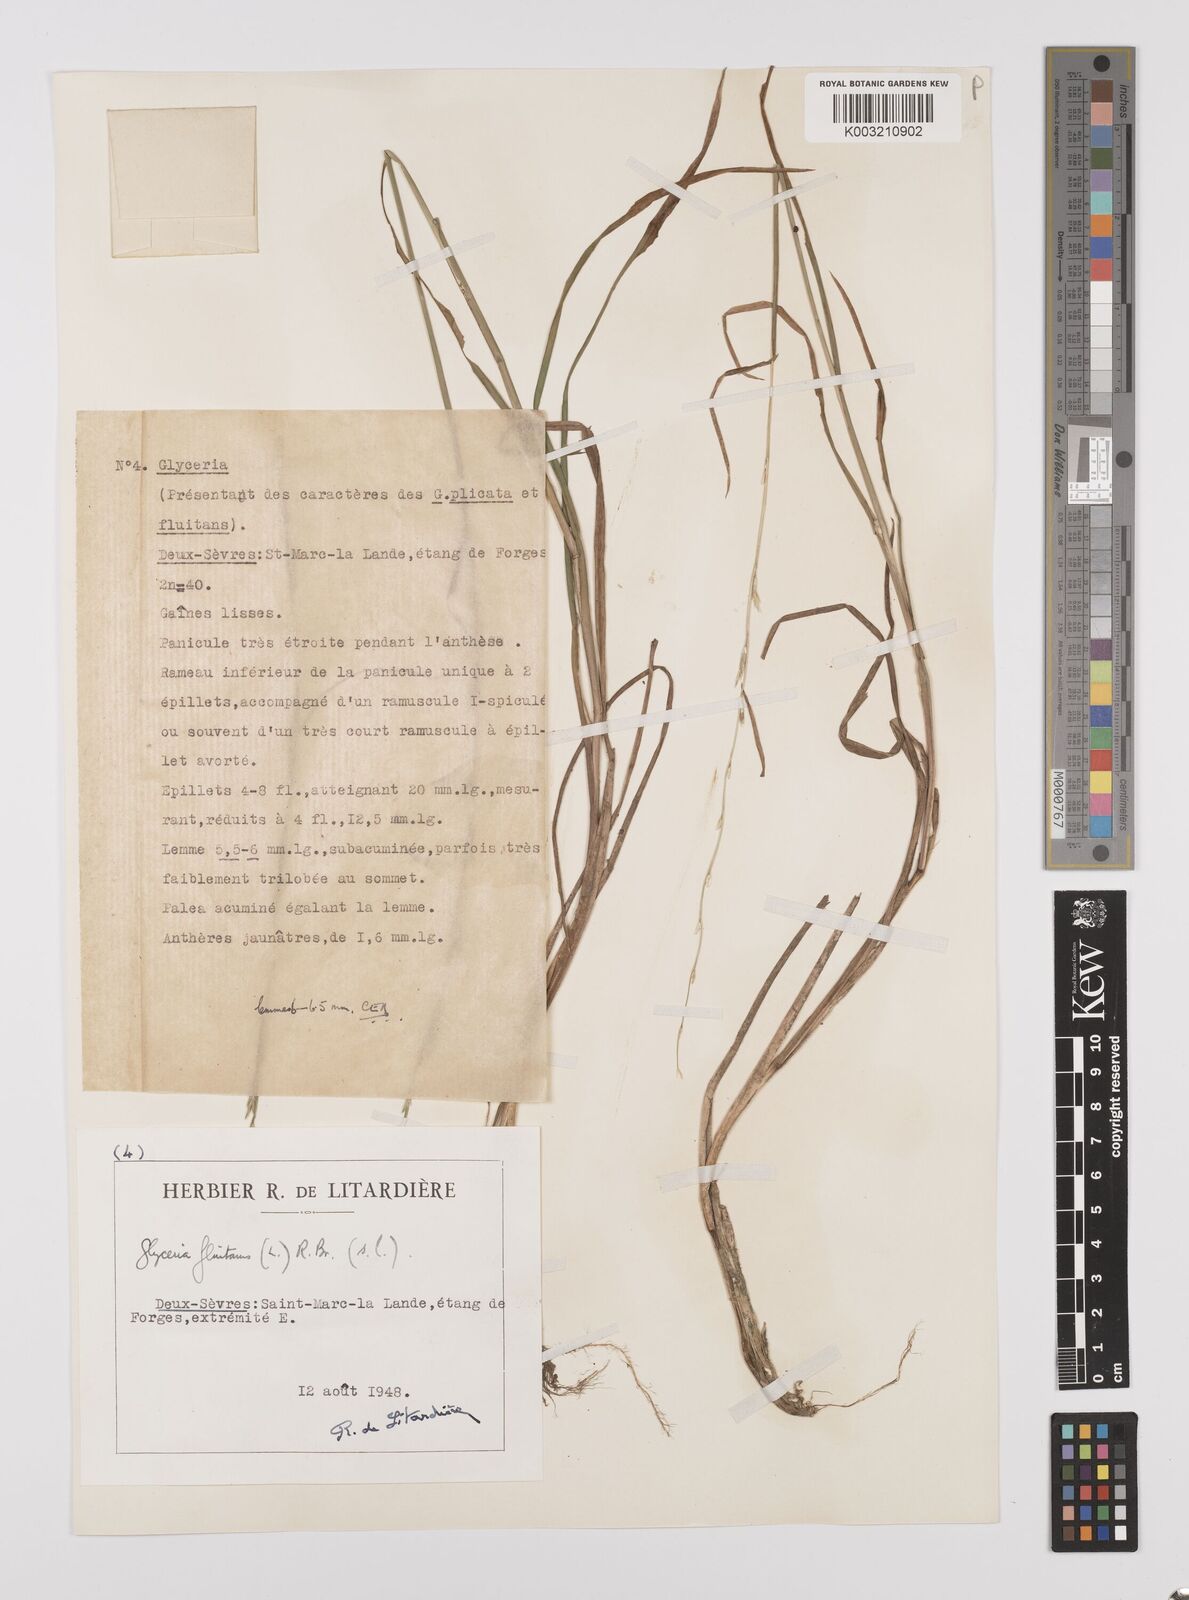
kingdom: Plantae
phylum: Tracheophyta
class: Liliopsida
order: Poales
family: Poaceae
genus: Glyceria
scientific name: Glyceria fluitans
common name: Floating sweet-grass
